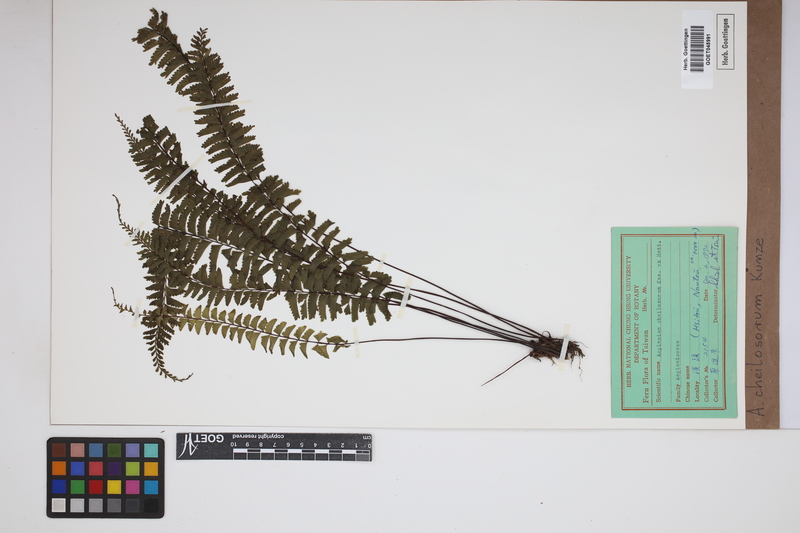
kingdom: Plantae
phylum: Tracheophyta
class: Polypodiopsida
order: Polypodiales
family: Aspleniaceae
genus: Hymenasplenium
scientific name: Hymenasplenium cheilosorum
